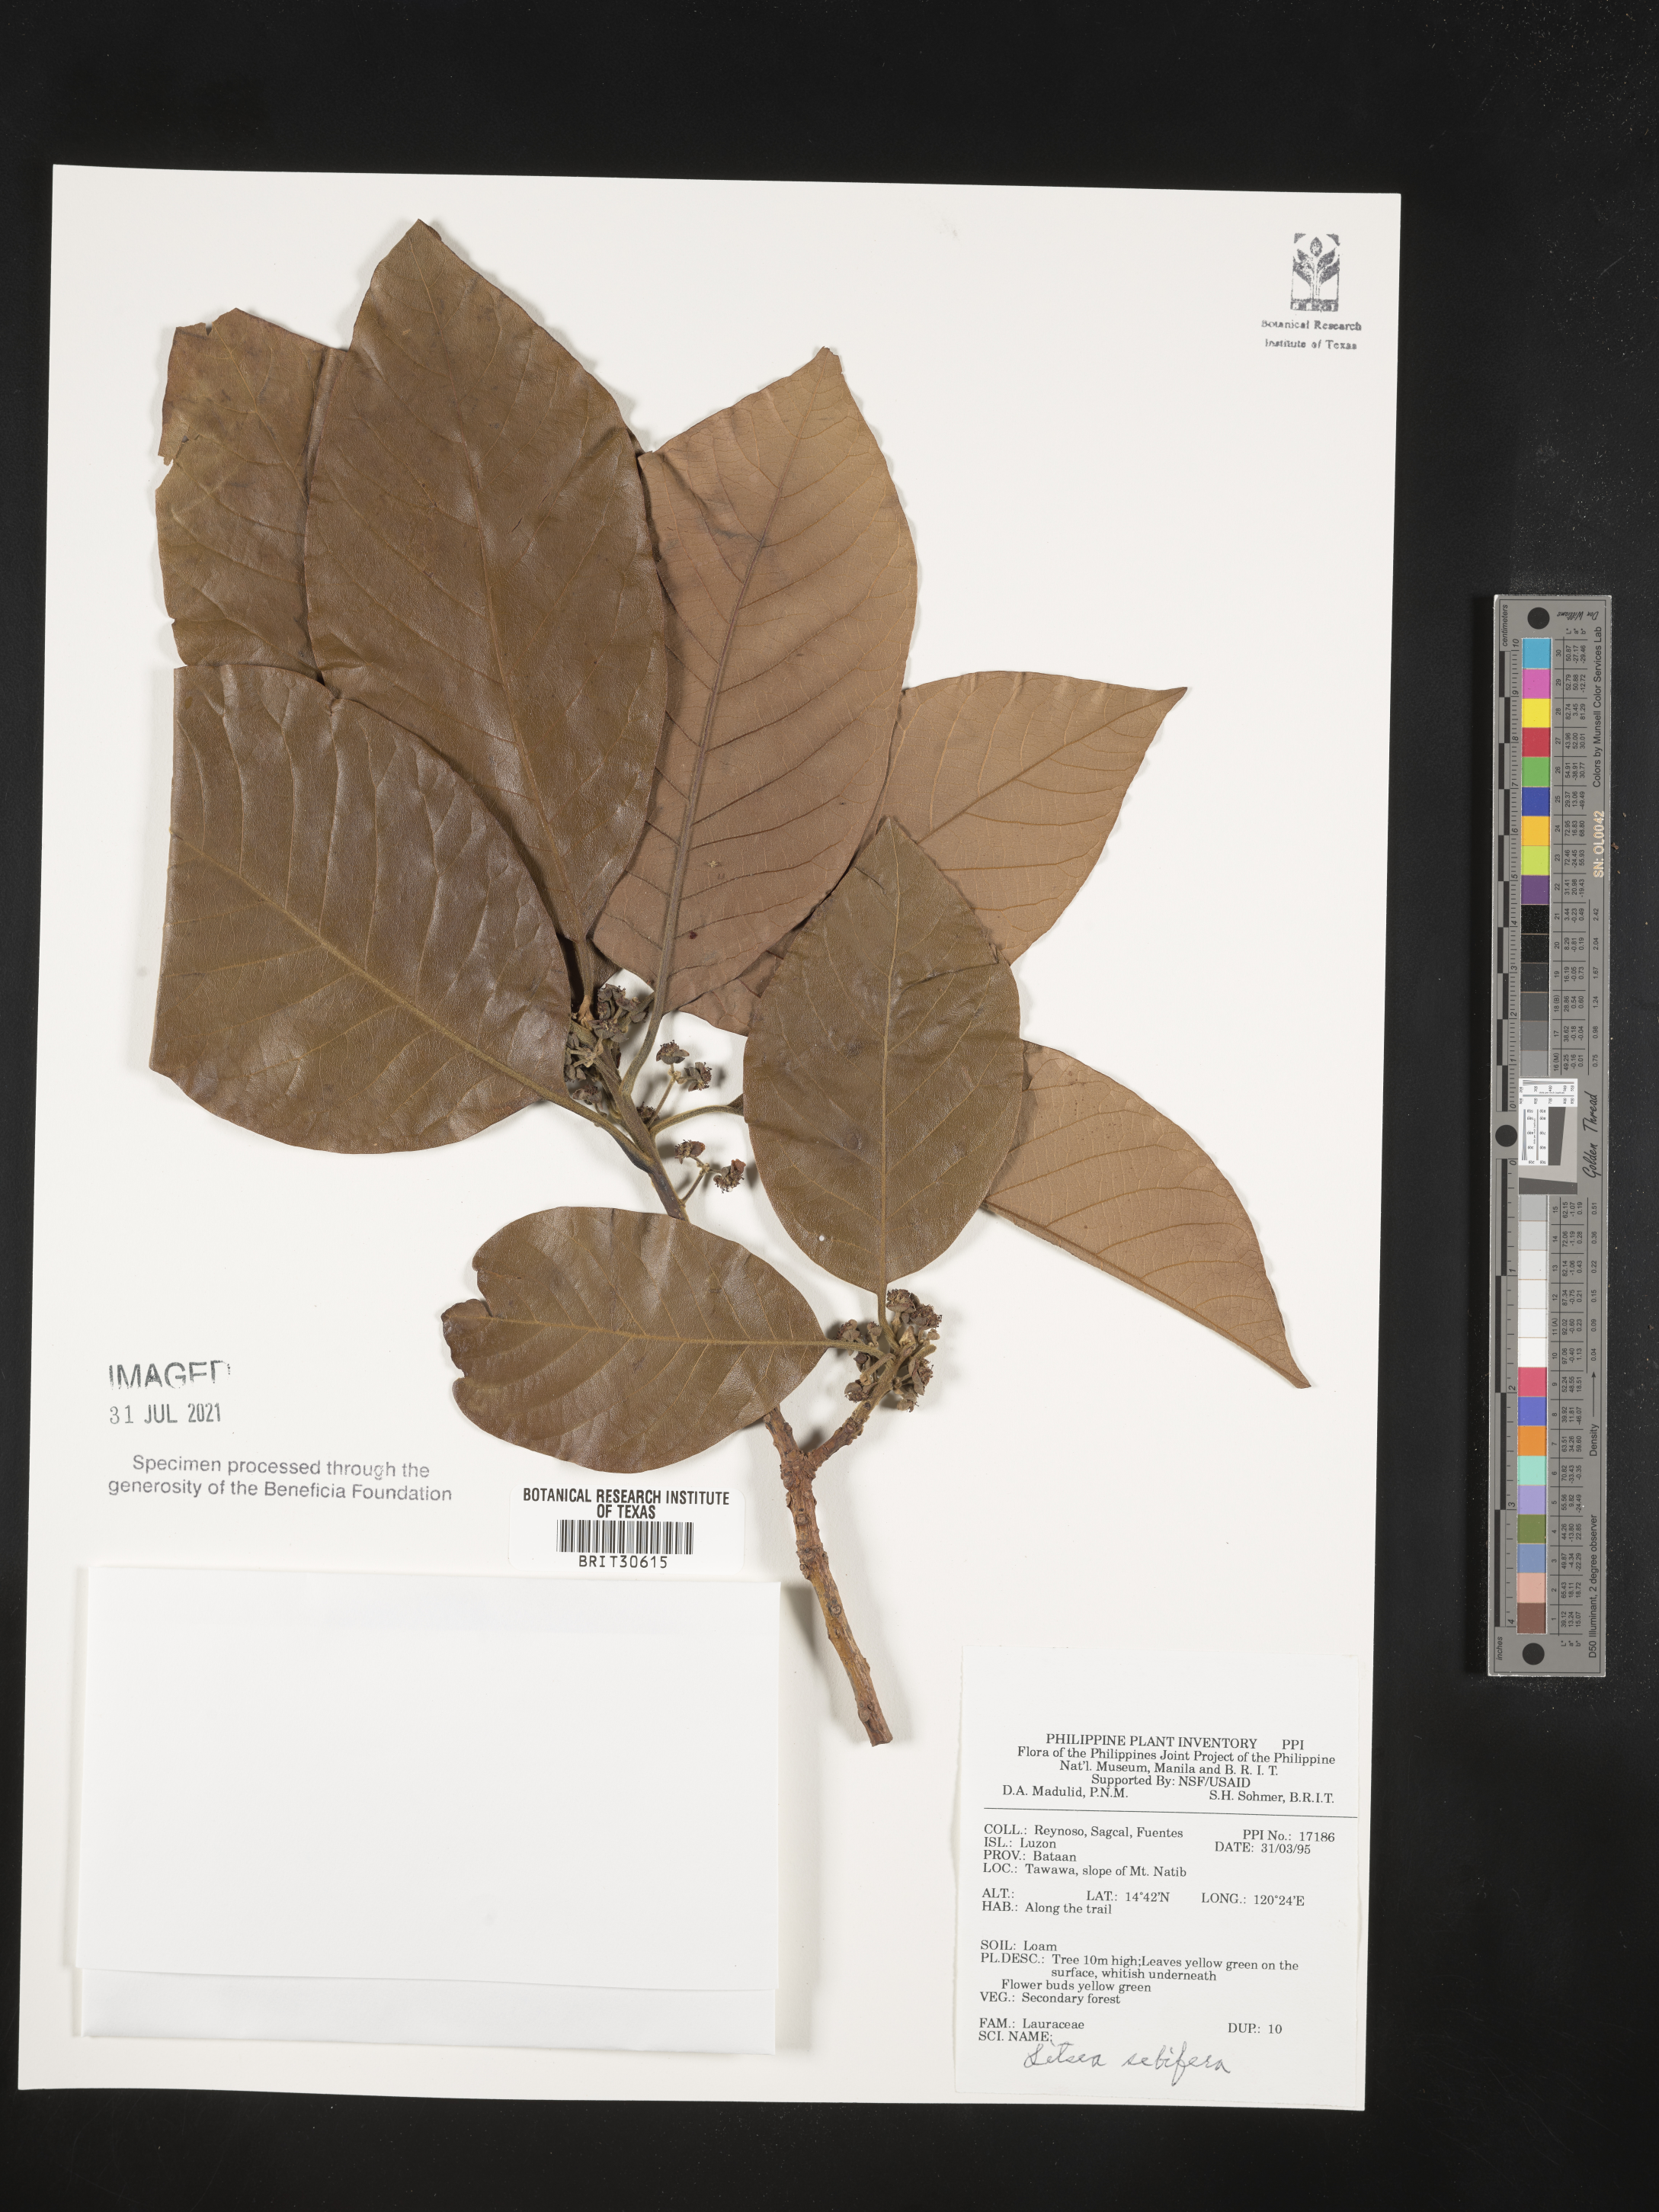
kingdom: Plantae
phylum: Tracheophyta
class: Magnoliopsida
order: Laurales
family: Lauraceae
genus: Litsea
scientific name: Litsea glutinosa
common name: Indian-laurel
